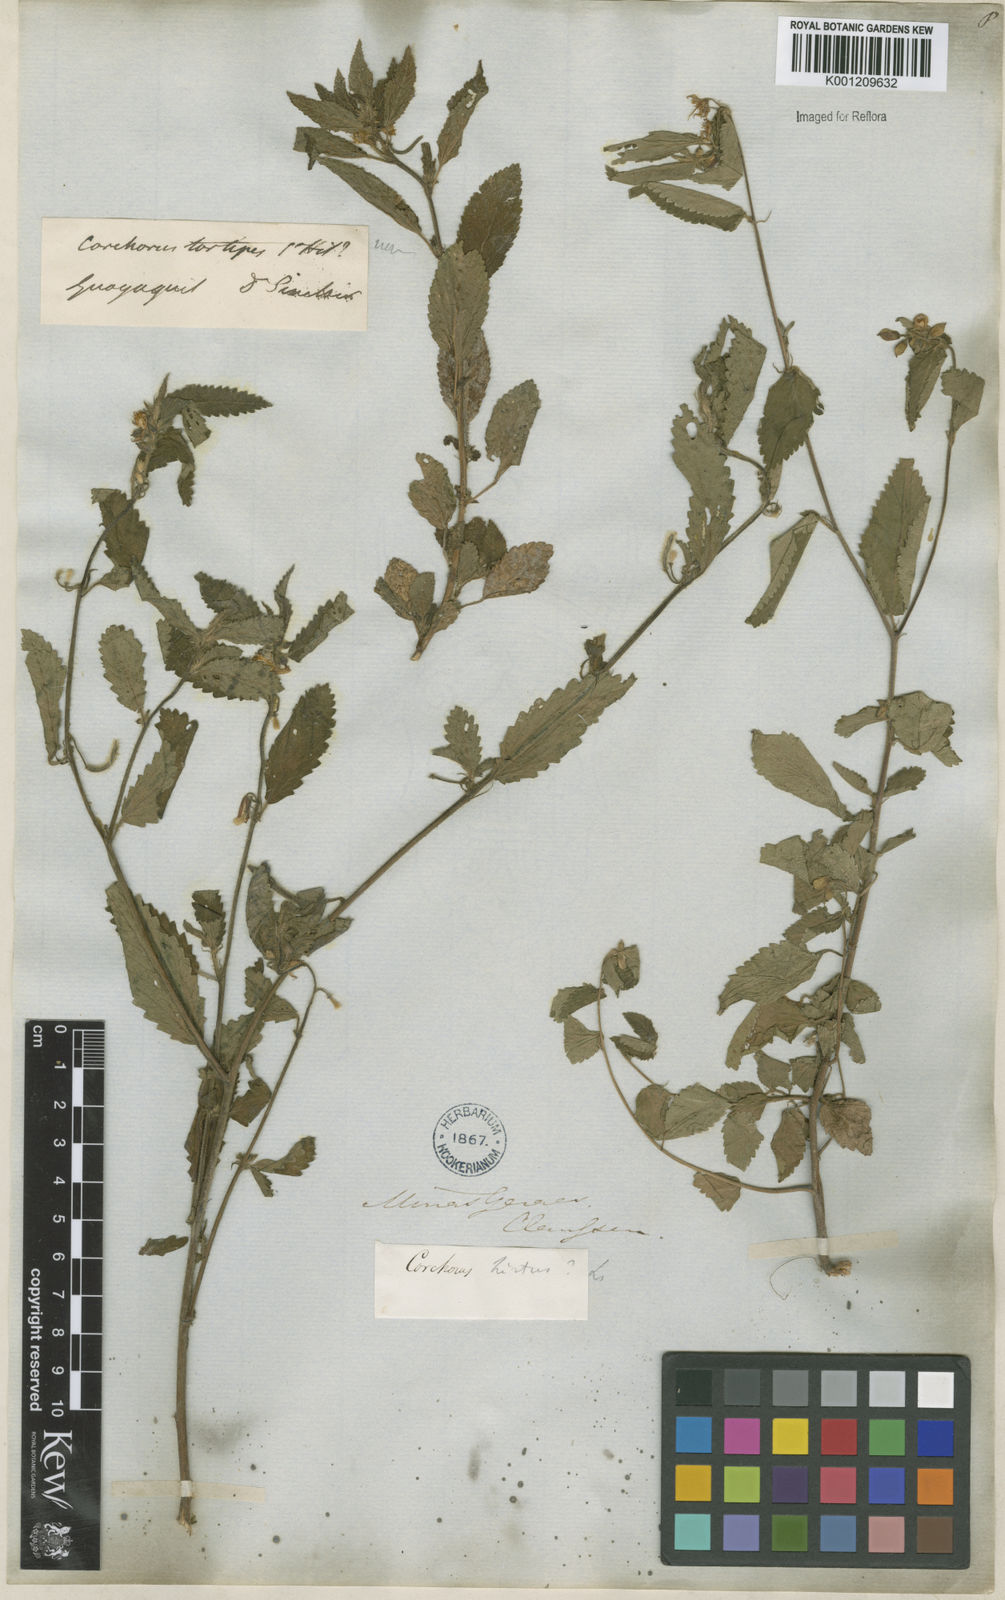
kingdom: Plantae
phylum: Tracheophyta
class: Magnoliopsida
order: Malvales
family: Malvaceae
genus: Corchorus
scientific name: Corchorus hirtus
